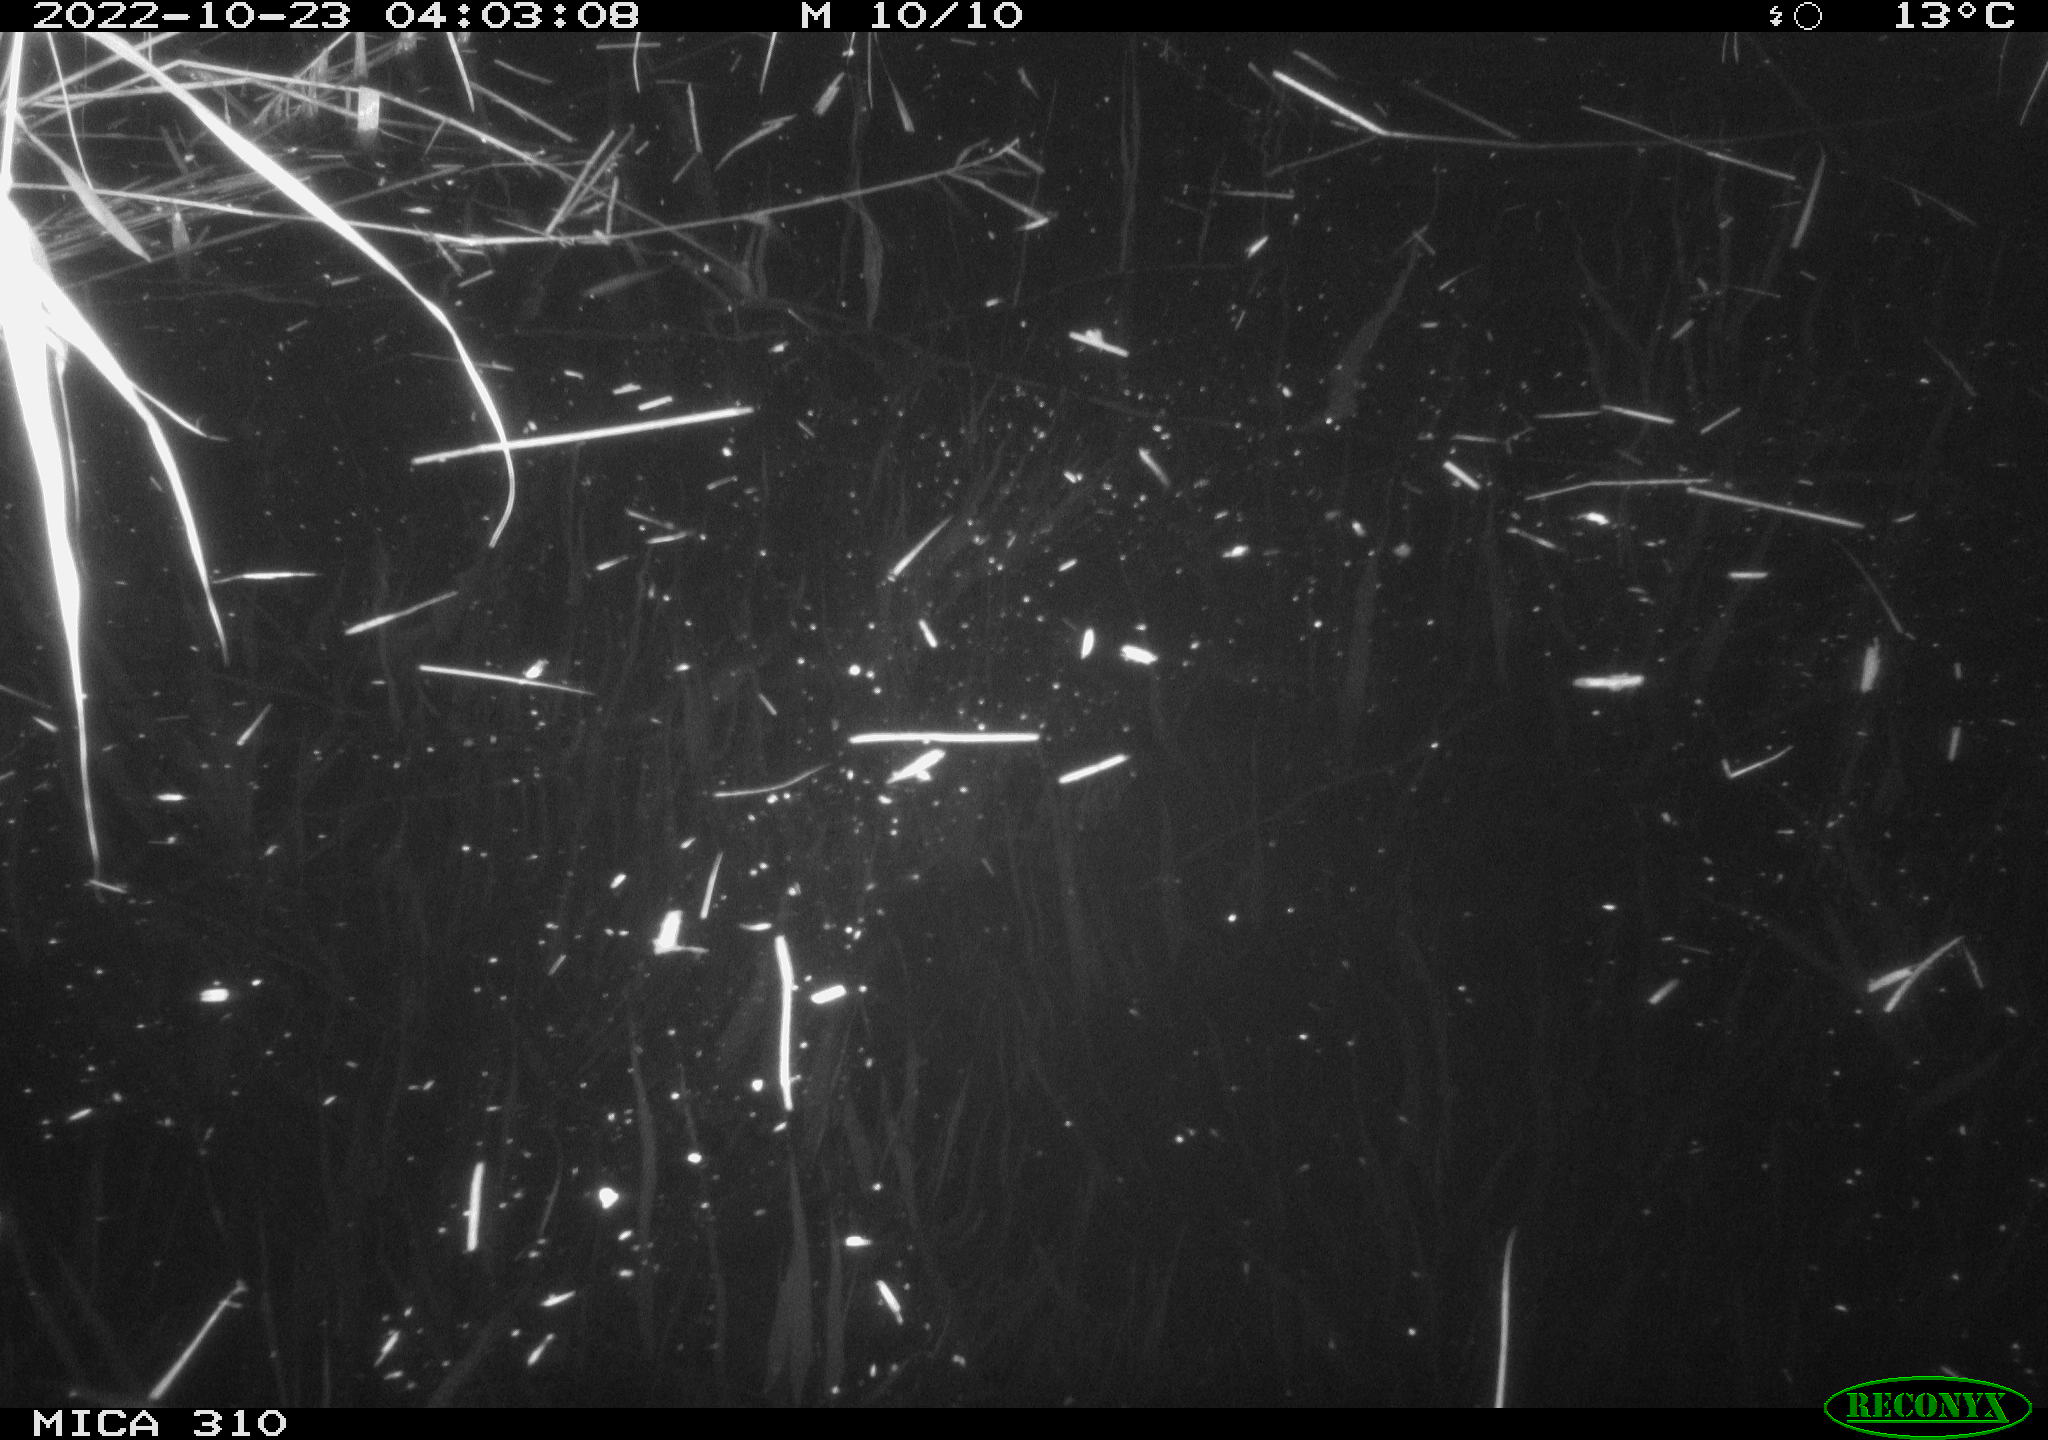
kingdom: Animalia
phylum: Chordata
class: Mammalia
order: Rodentia
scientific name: Rodentia
